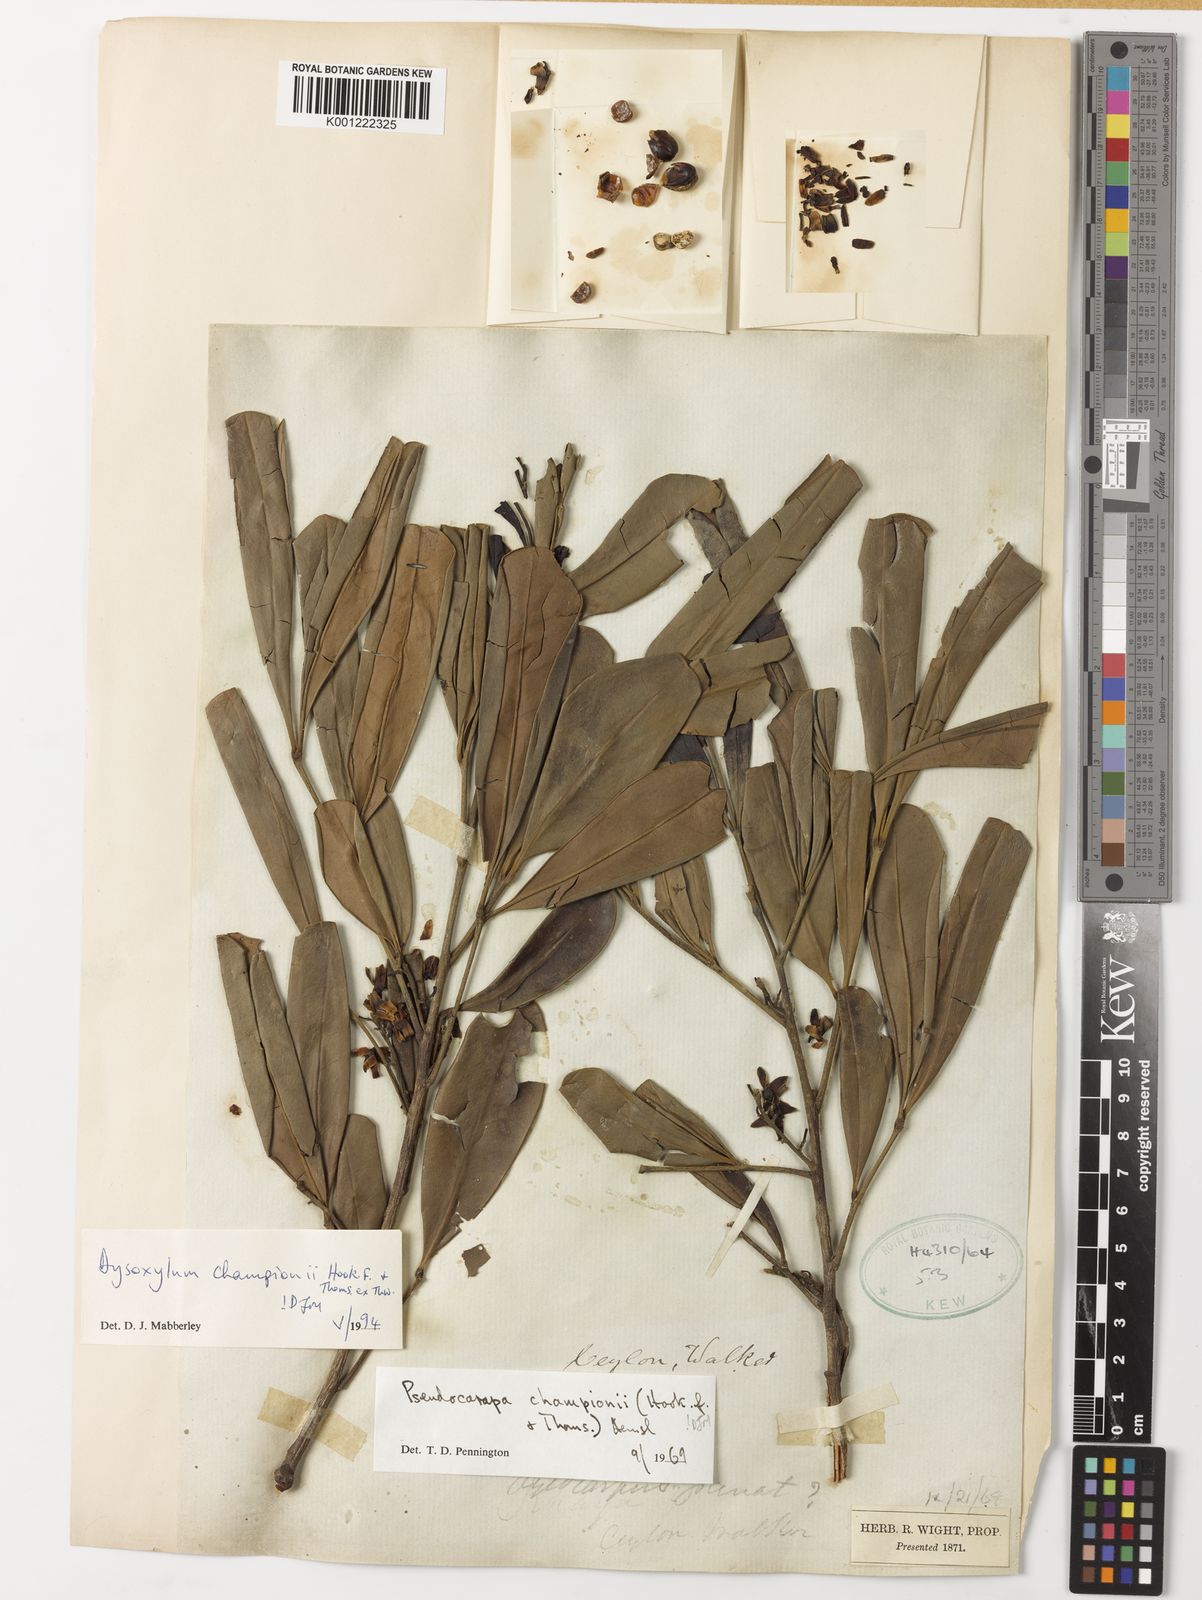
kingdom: Plantae
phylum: Tracheophyta
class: Magnoliopsida
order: Sapindales
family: Meliaceae
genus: Pseudocarapa
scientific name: Pseudocarapa championii
